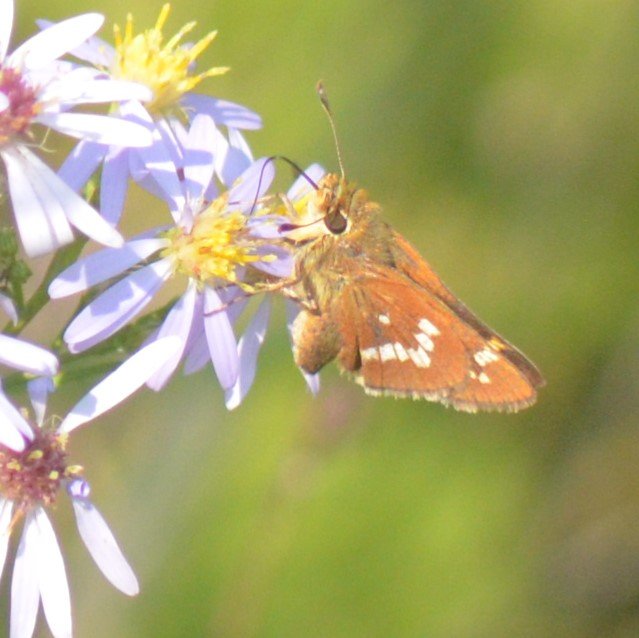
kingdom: Animalia
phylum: Arthropoda
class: Insecta
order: Lepidoptera
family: Hesperiidae
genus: Hesperia
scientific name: Hesperia leonardus
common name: Leonard's Skipper
